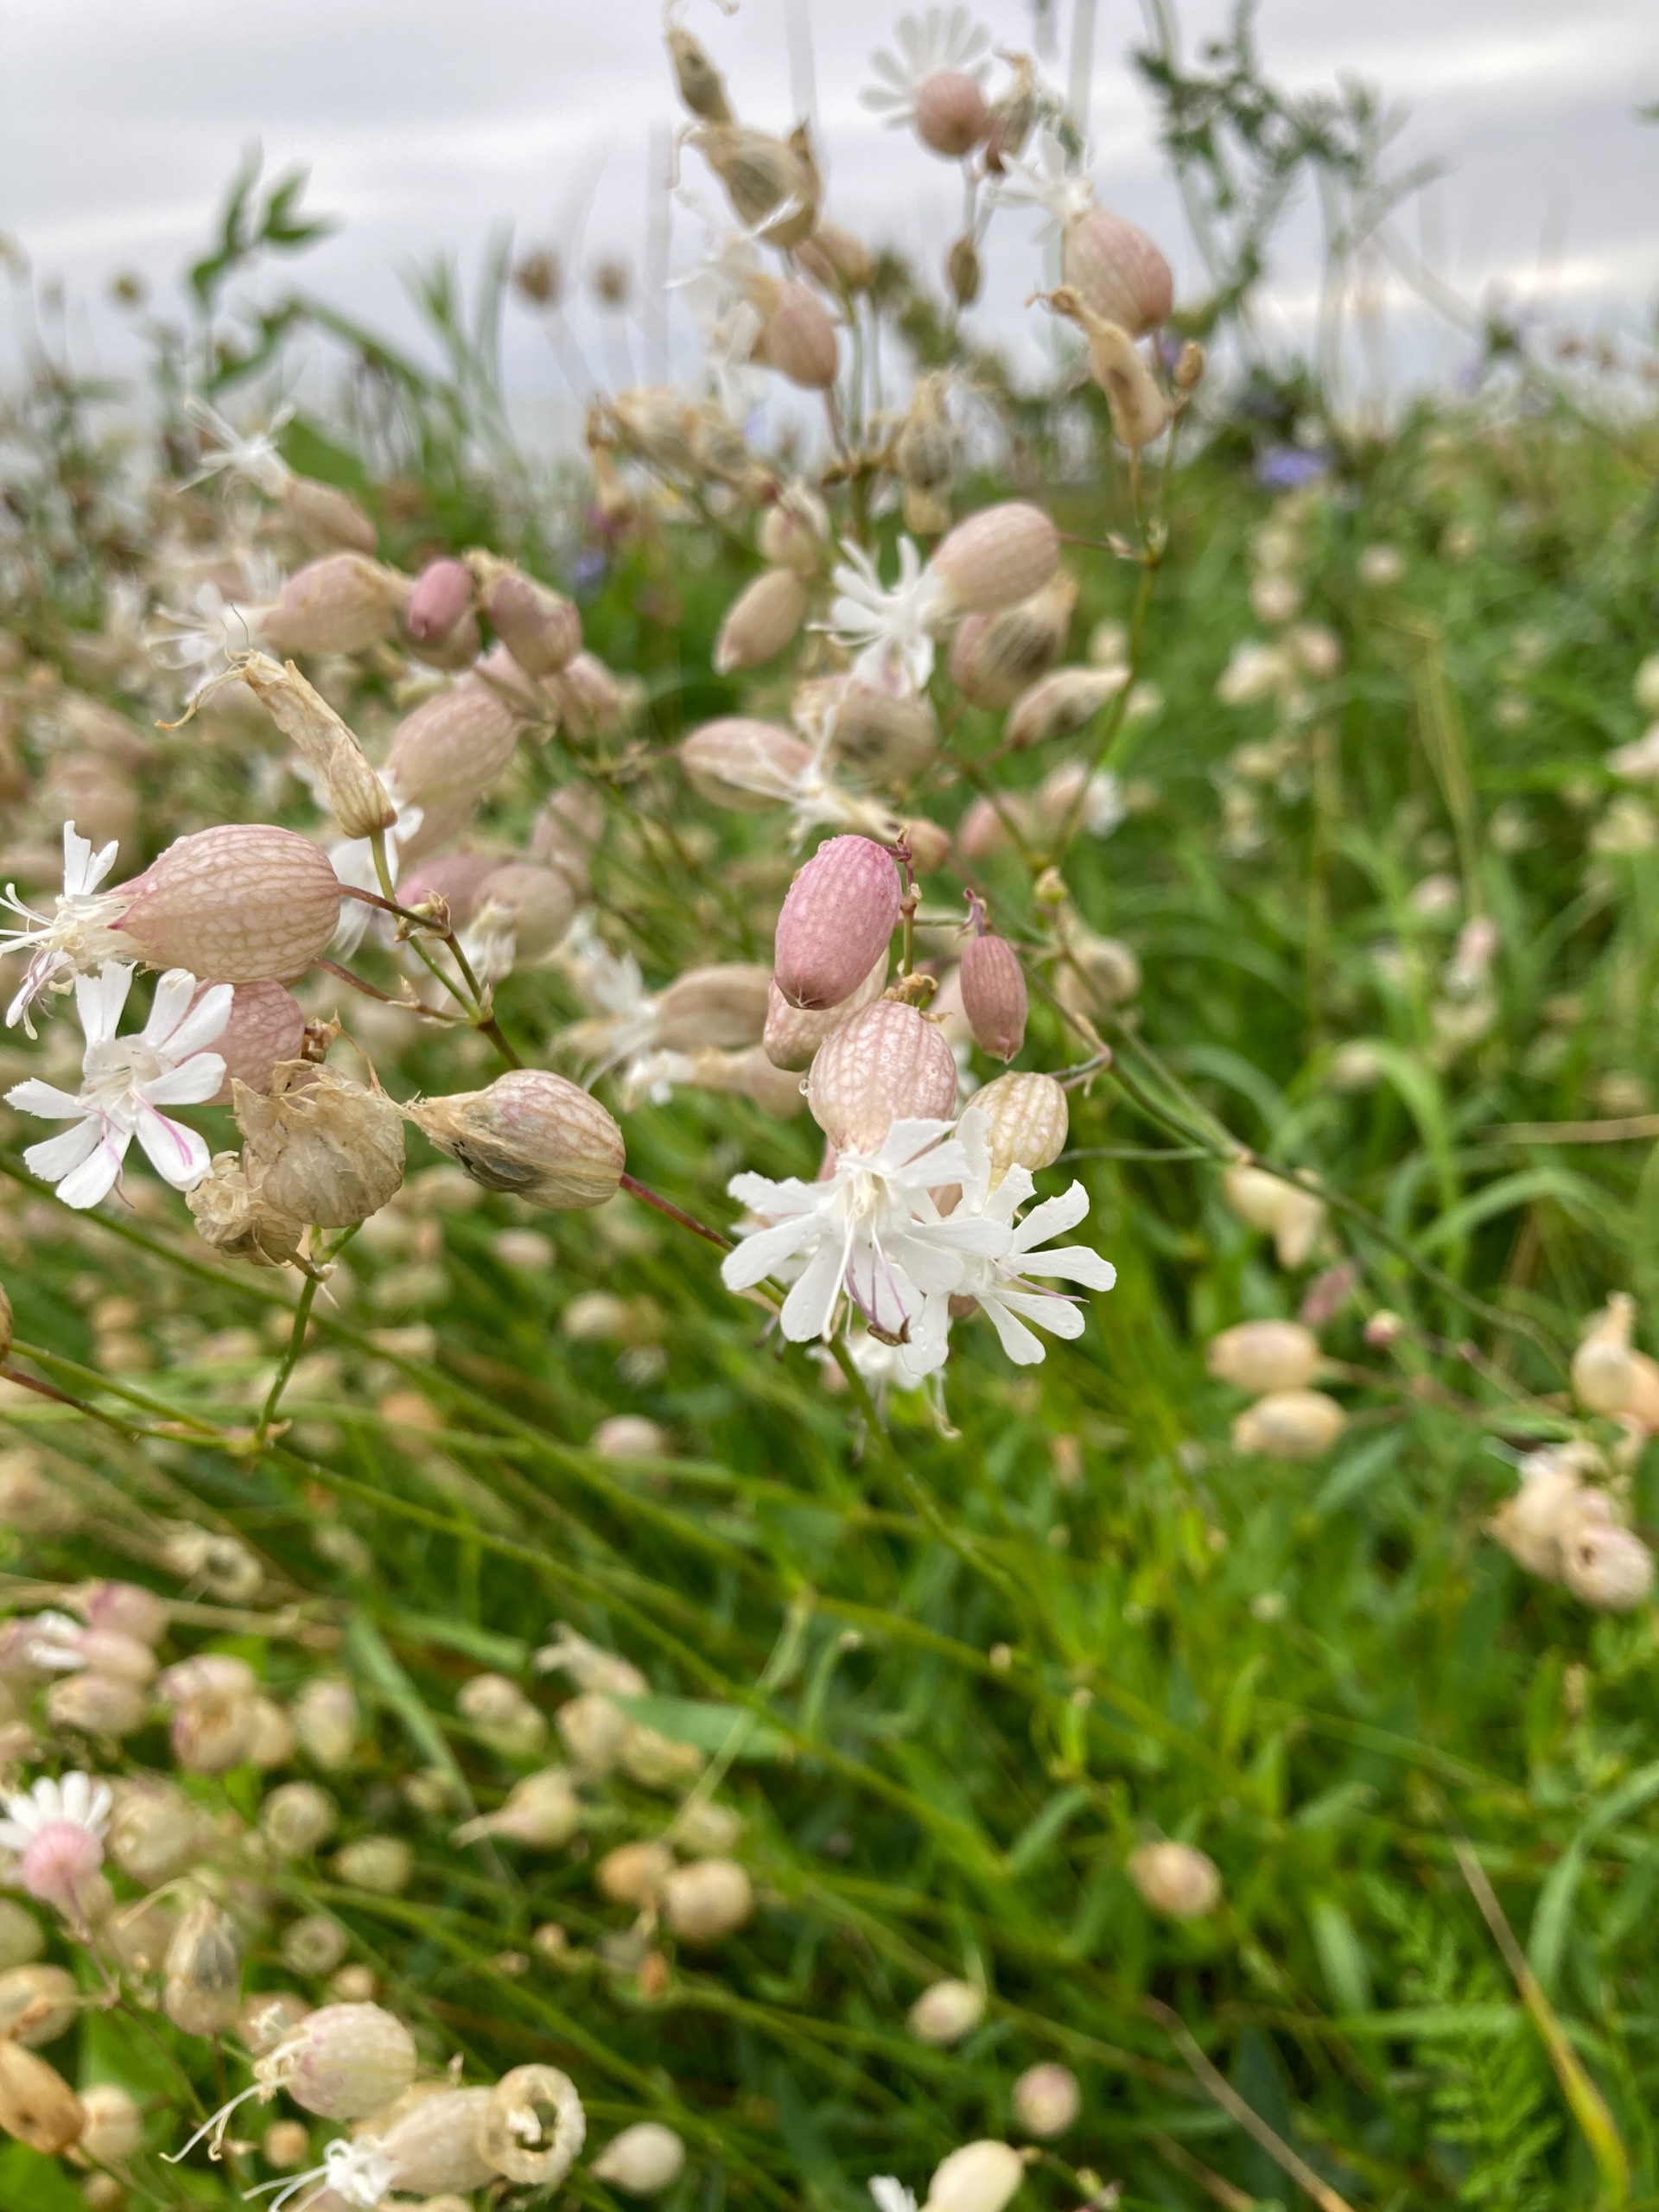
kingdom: Plantae
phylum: Tracheophyta
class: Magnoliopsida
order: Caryophyllales
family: Caryophyllaceae
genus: Silene
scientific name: Silene vulgaris
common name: Blæresmælde
